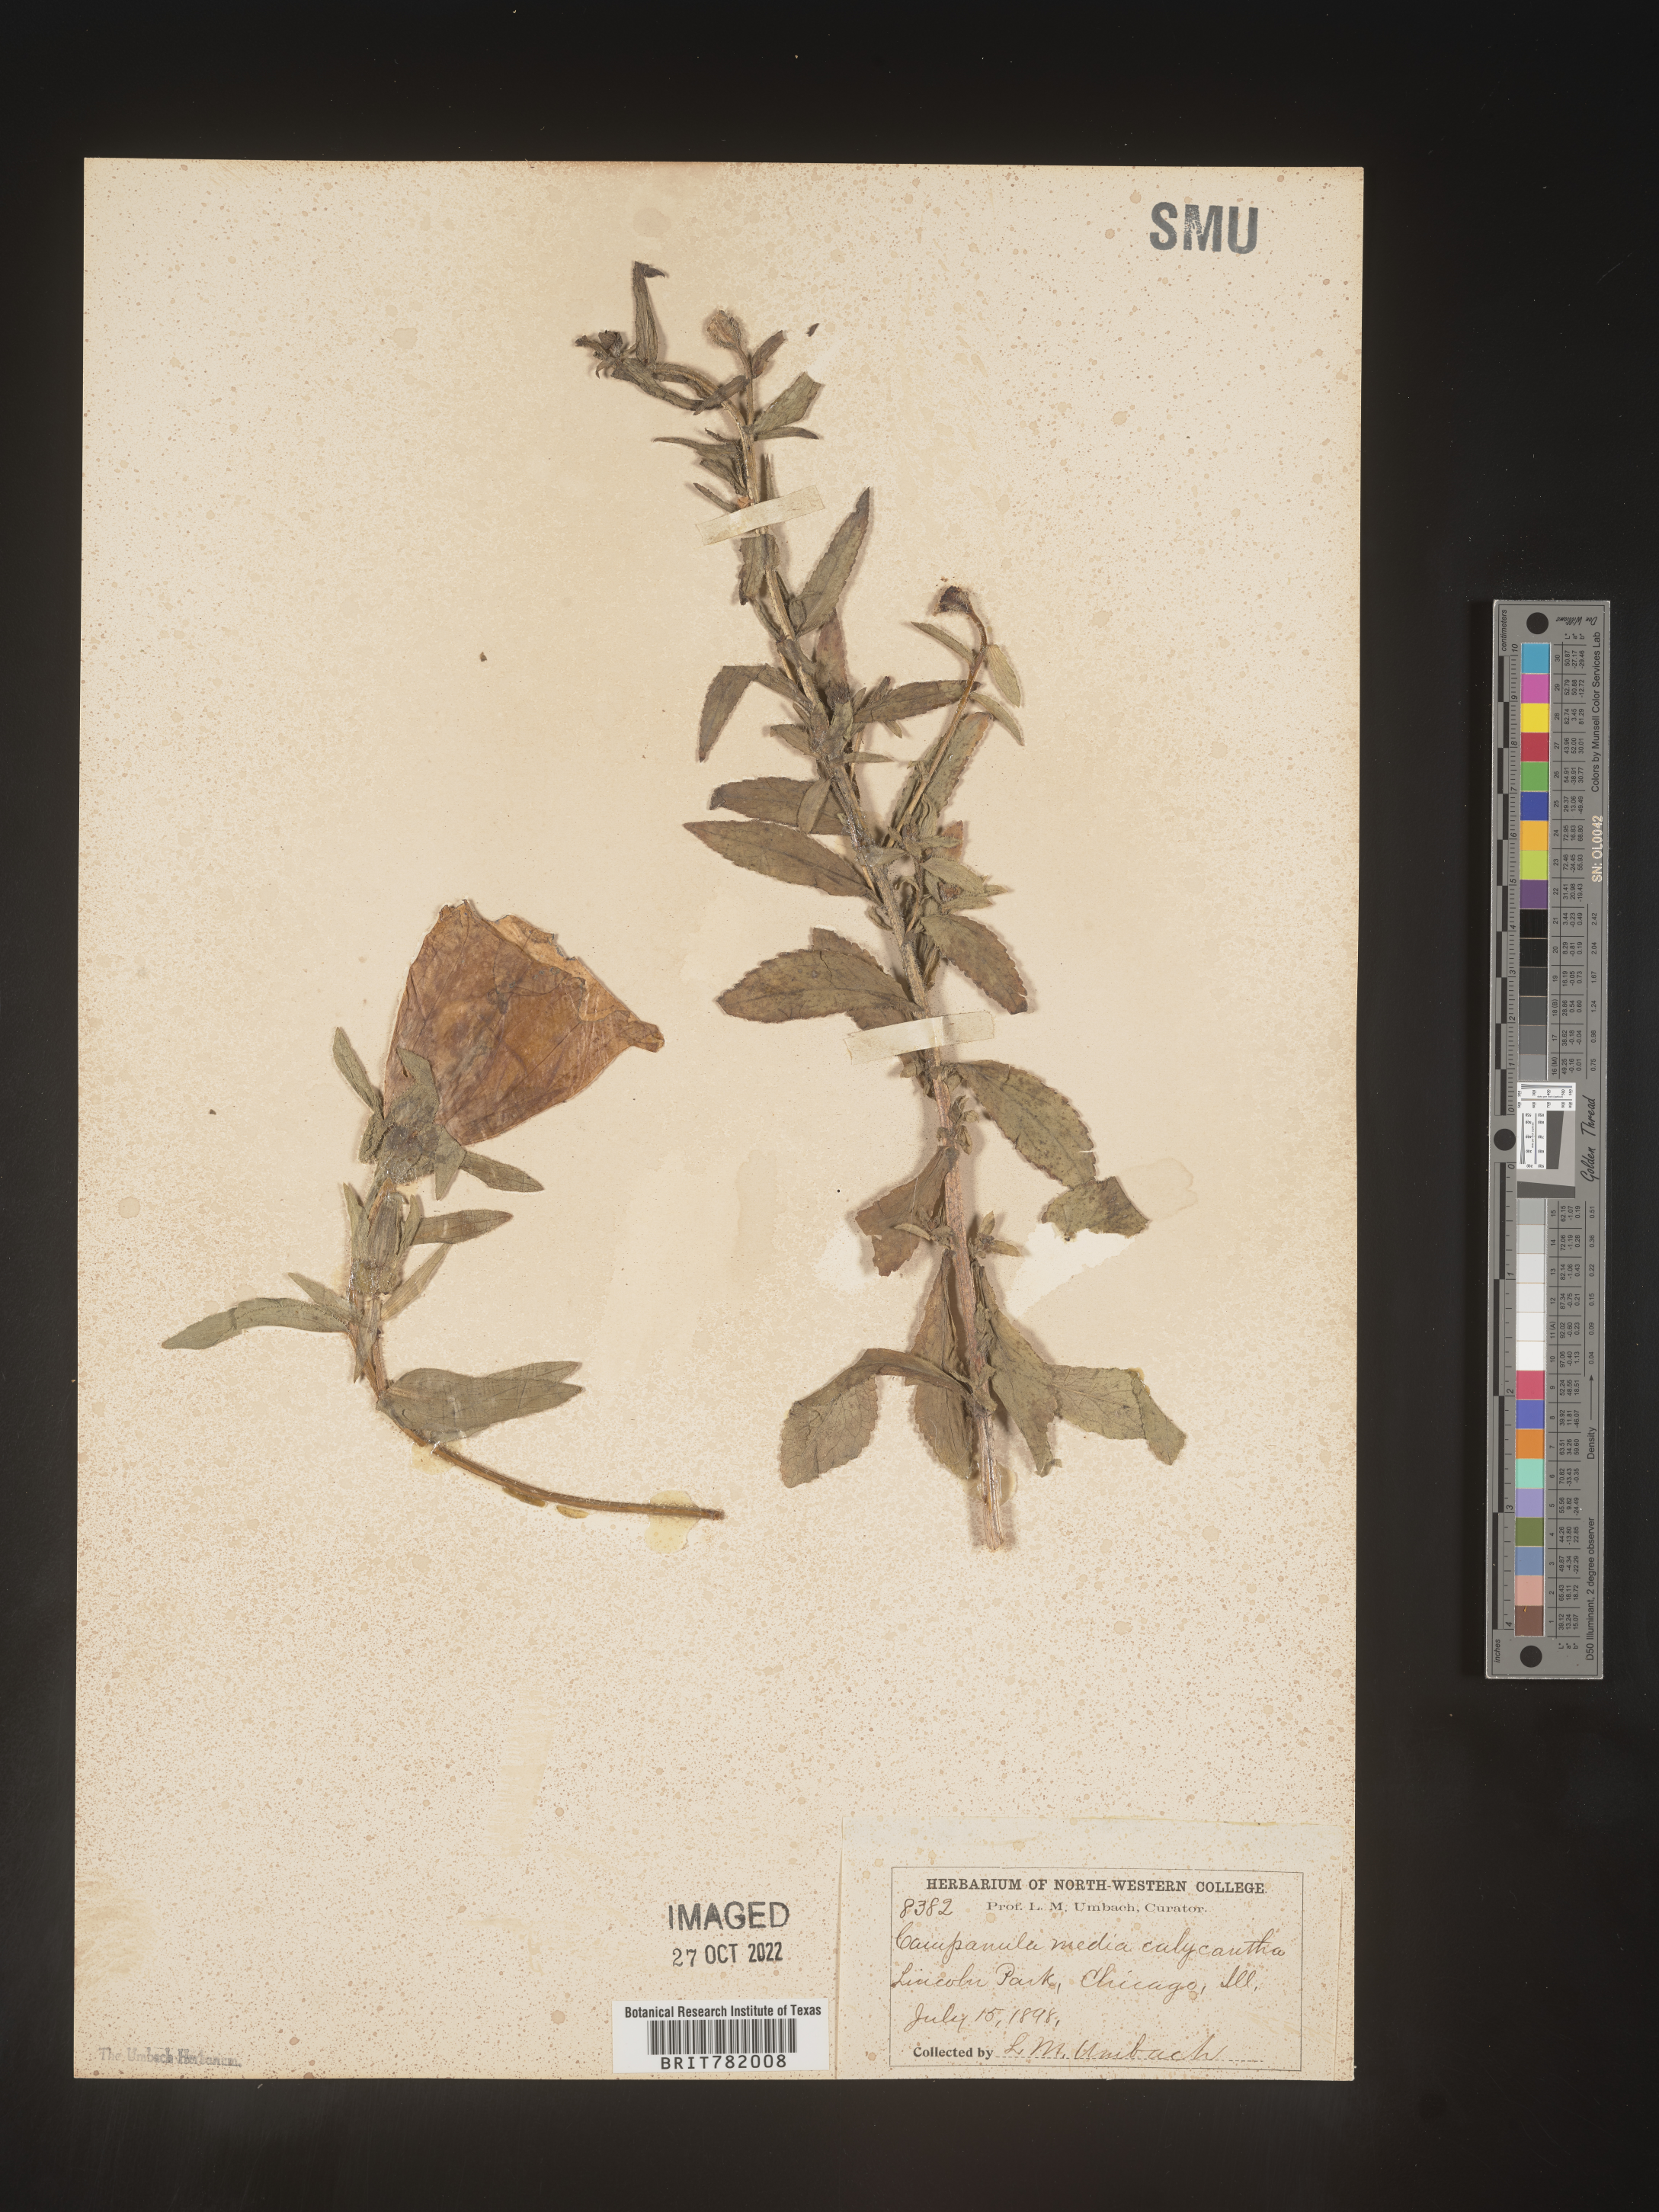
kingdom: Plantae
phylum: Tracheophyta
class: Magnoliopsida
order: Asterales
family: Campanulaceae
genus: Campanula
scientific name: Campanula
